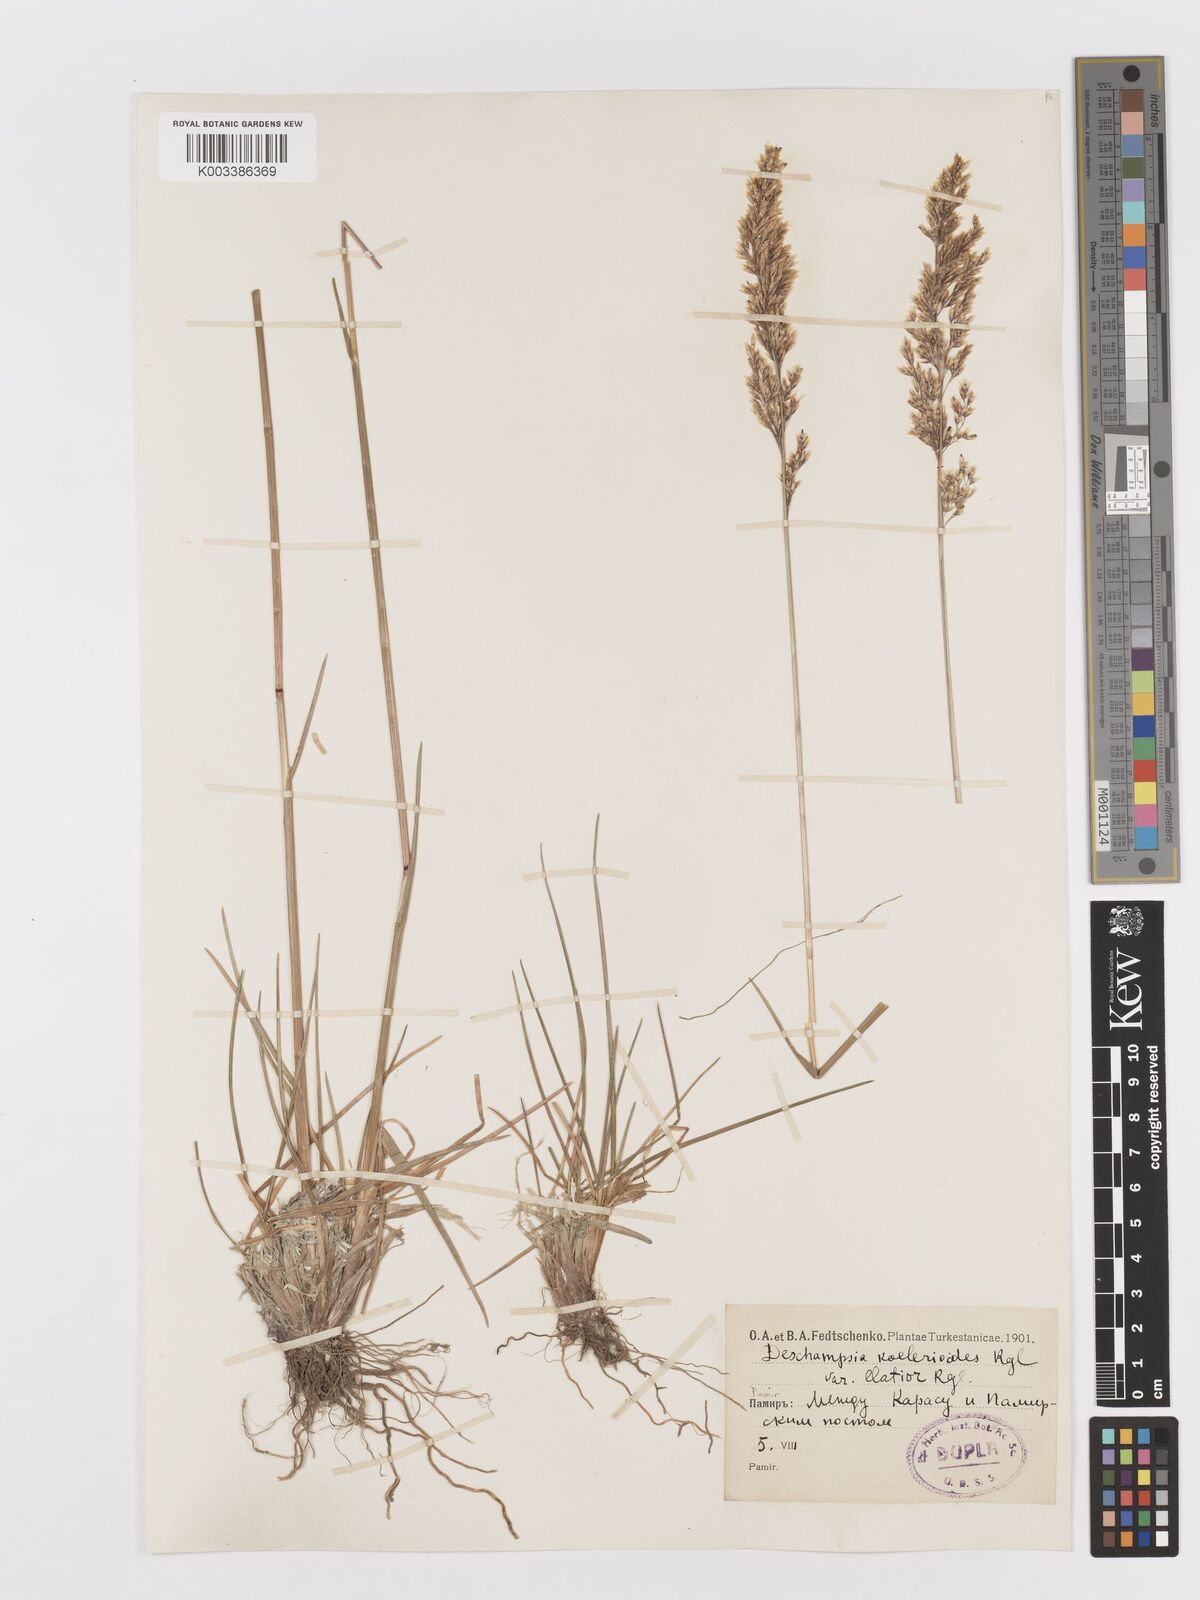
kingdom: Plantae
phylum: Tracheophyta
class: Liliopsida
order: Poales
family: Poaceae
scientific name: Poaceae
